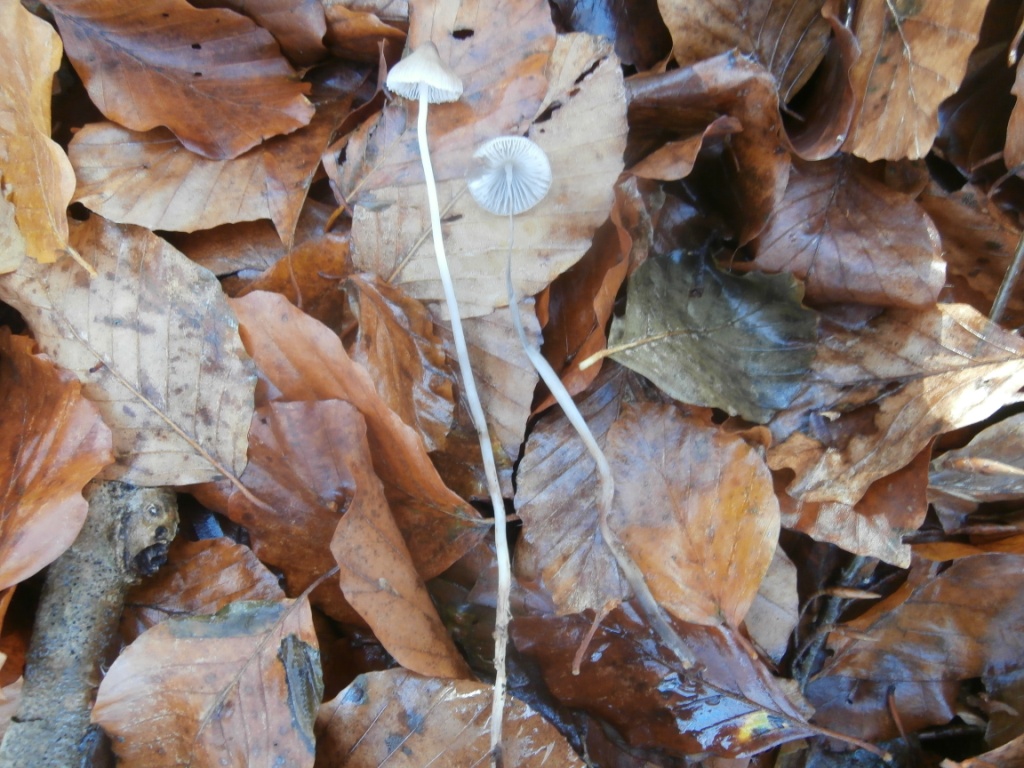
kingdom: Fungi
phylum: Basidiomycota
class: Agaricomycetes
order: Agaricales
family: Mycenaceae
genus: Mycena
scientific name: Mycena vitilis
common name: blankstokket huesvamp
